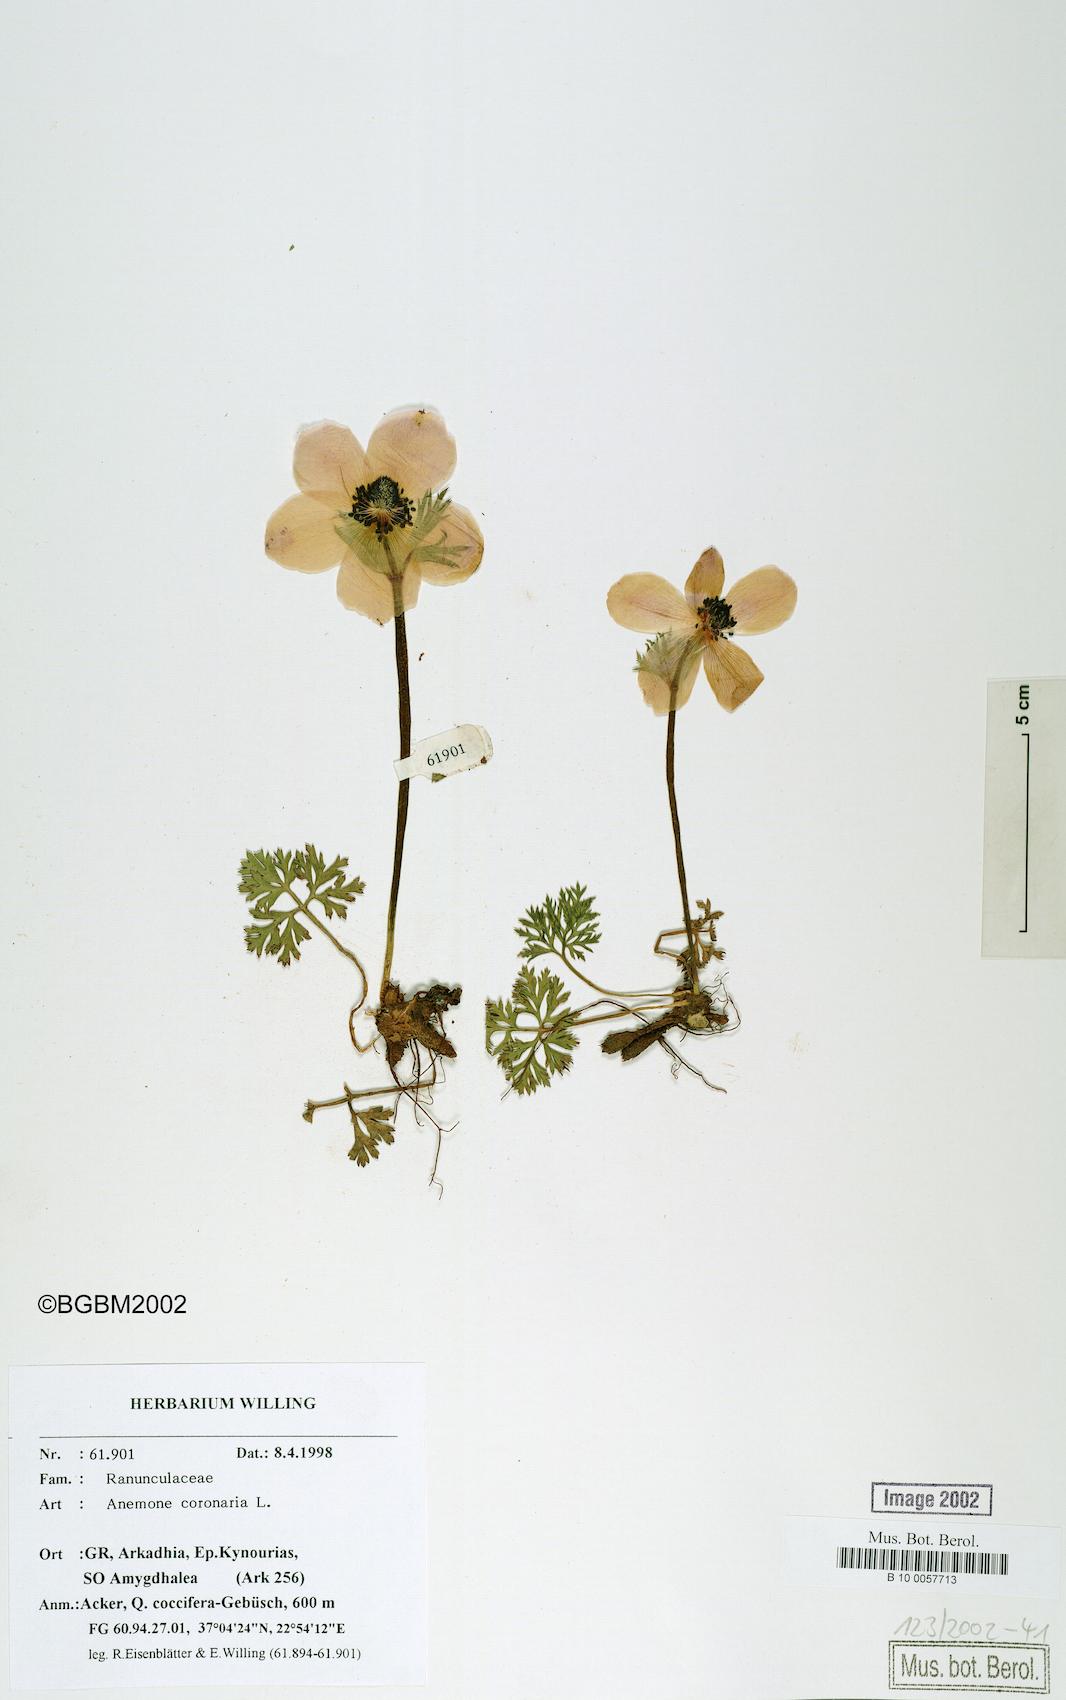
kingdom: Plantae
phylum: Tracheophyta
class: Magnoliopsida
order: Ranunculales
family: Ranunculaceae
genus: Anemone
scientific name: Anemone coronaria
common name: Poppy anemone
